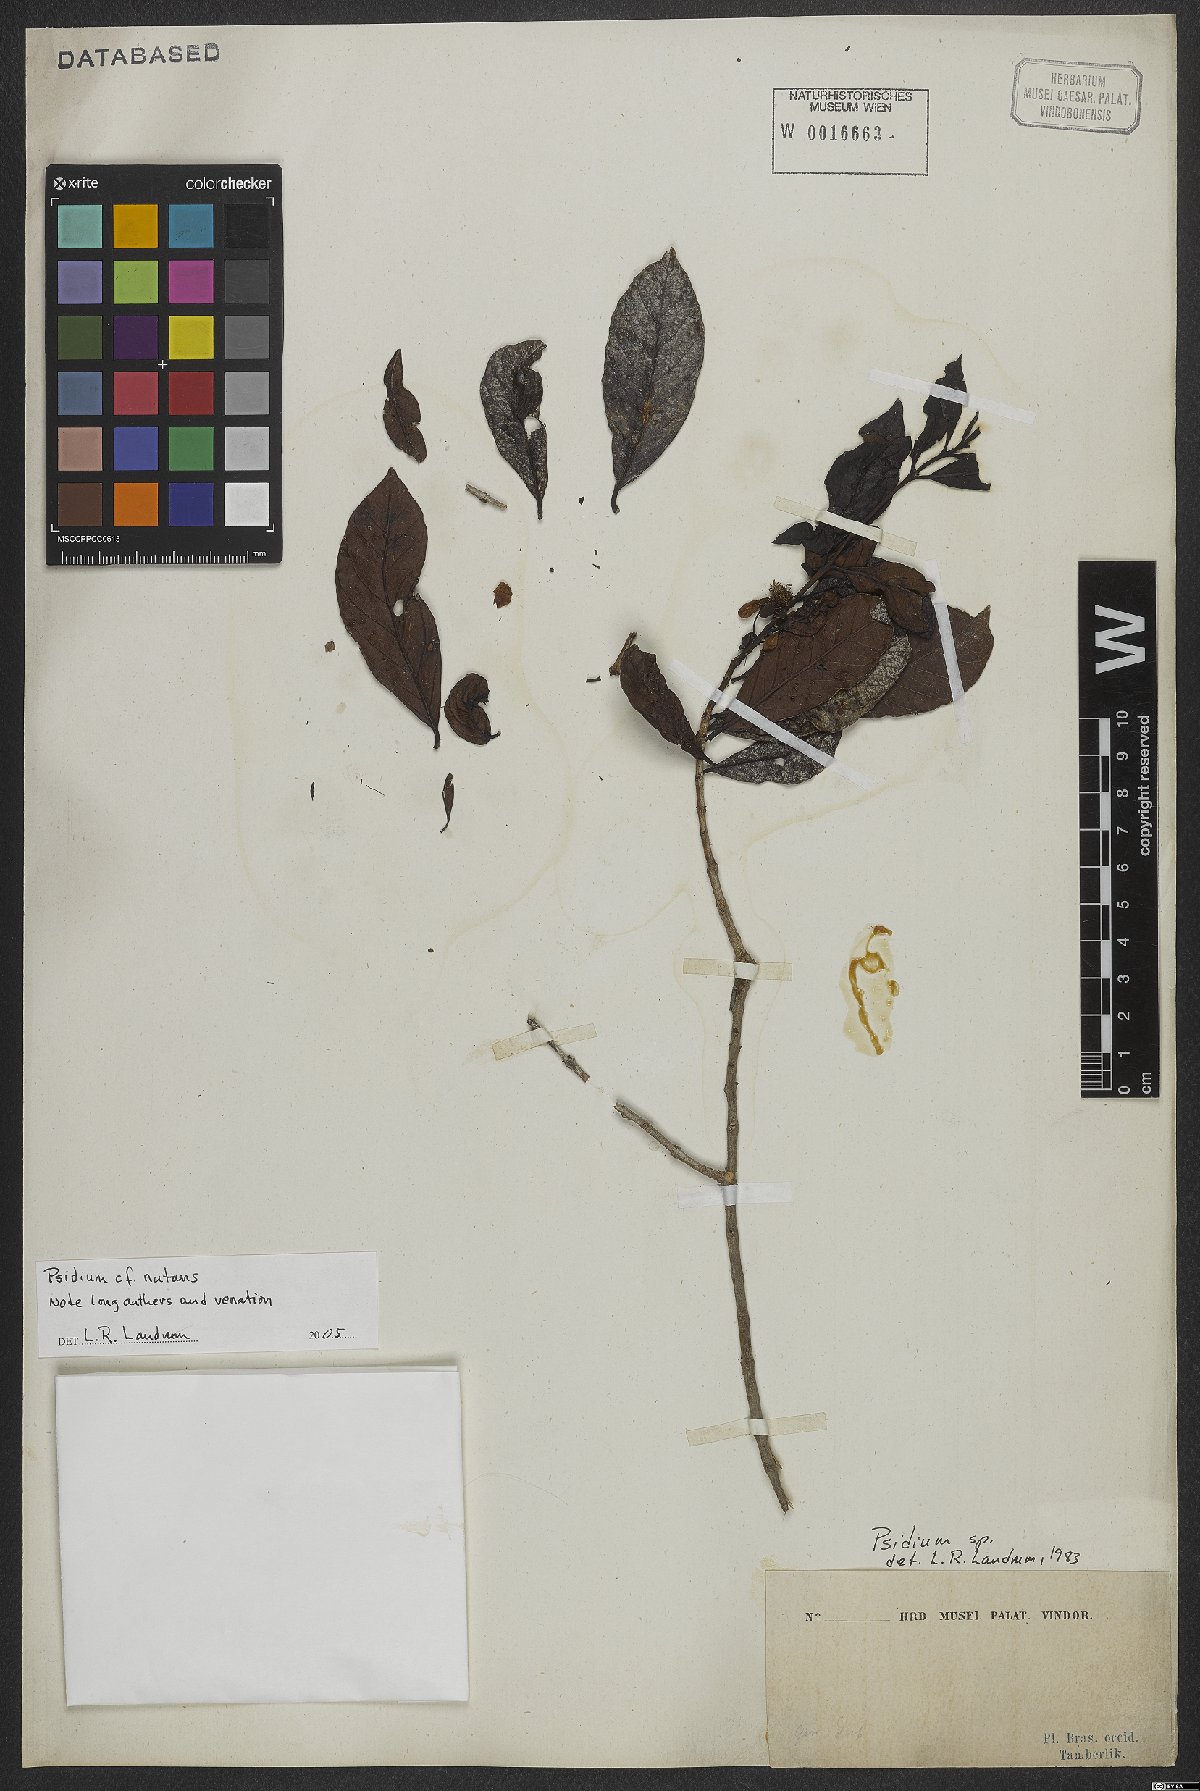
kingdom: Plantae
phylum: Tracheophyta
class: Magnoliopsida
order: Myrtales
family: Myrtaceae
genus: Psidium
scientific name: Psidium guyanense
